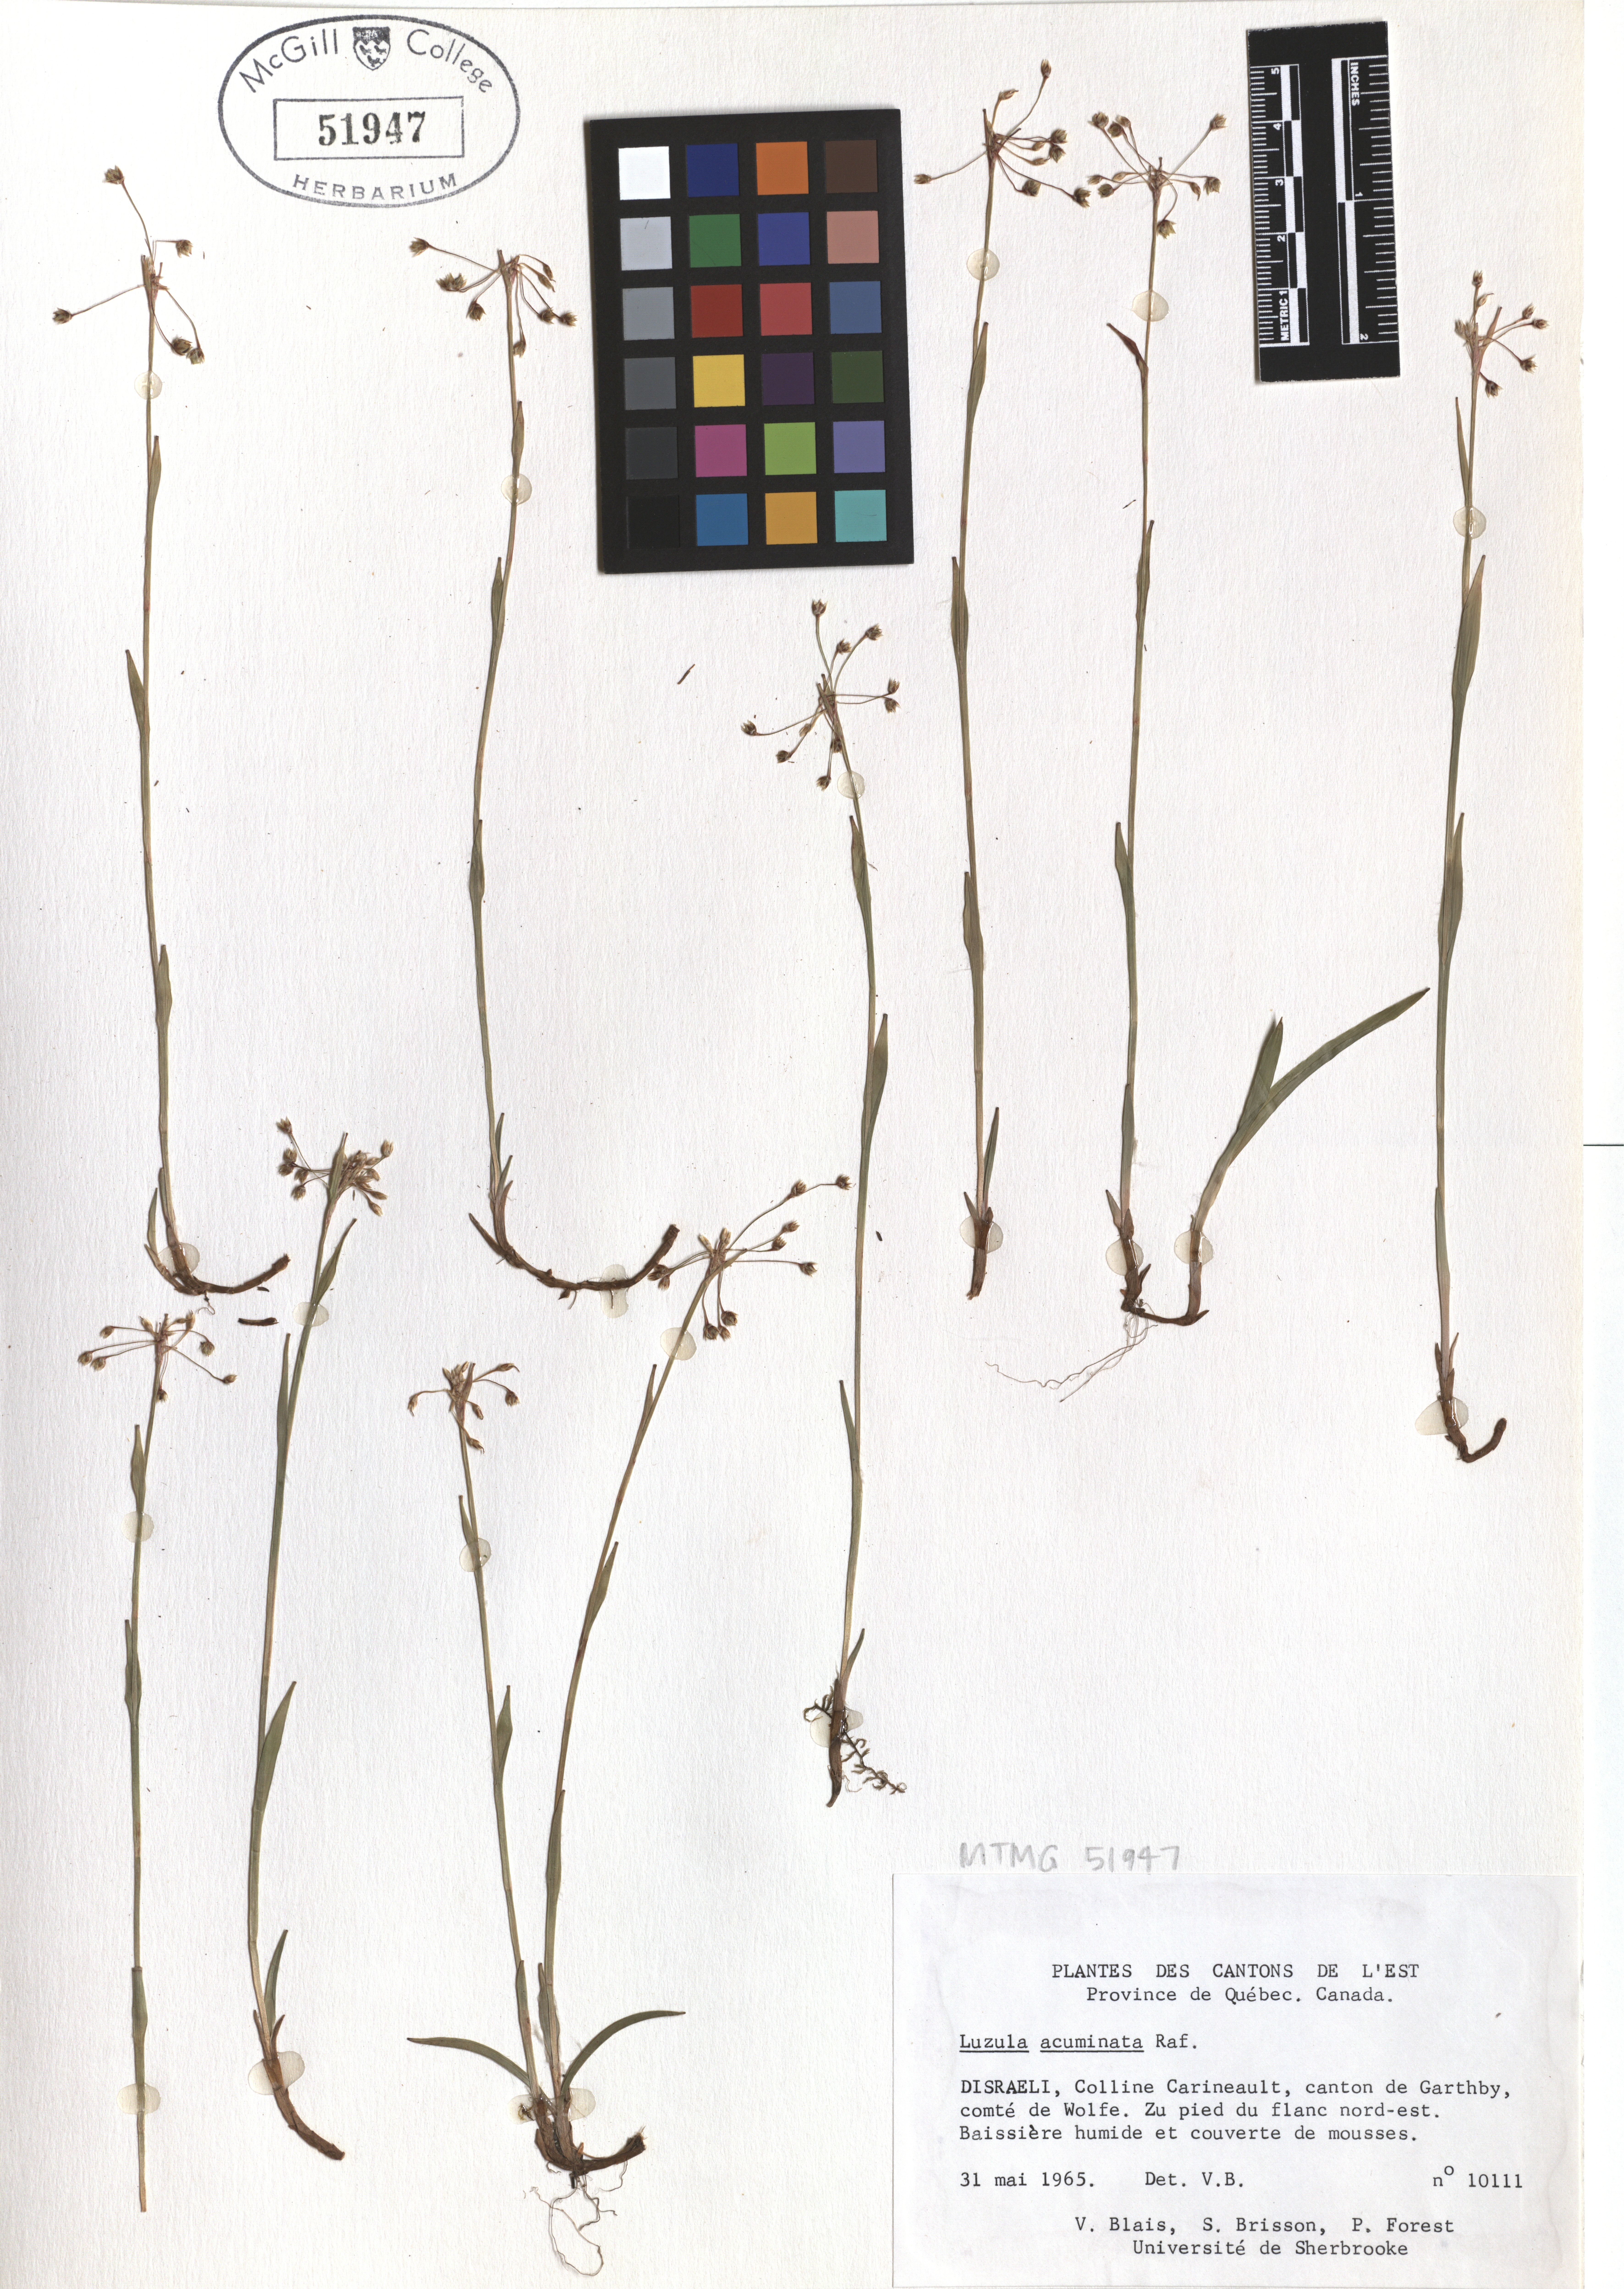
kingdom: Plantae
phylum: Tracheophyta
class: Liliopsida
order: Poales
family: Juncaceae
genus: Luzula
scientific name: Luzula acuminata
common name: Hairy woodrush
